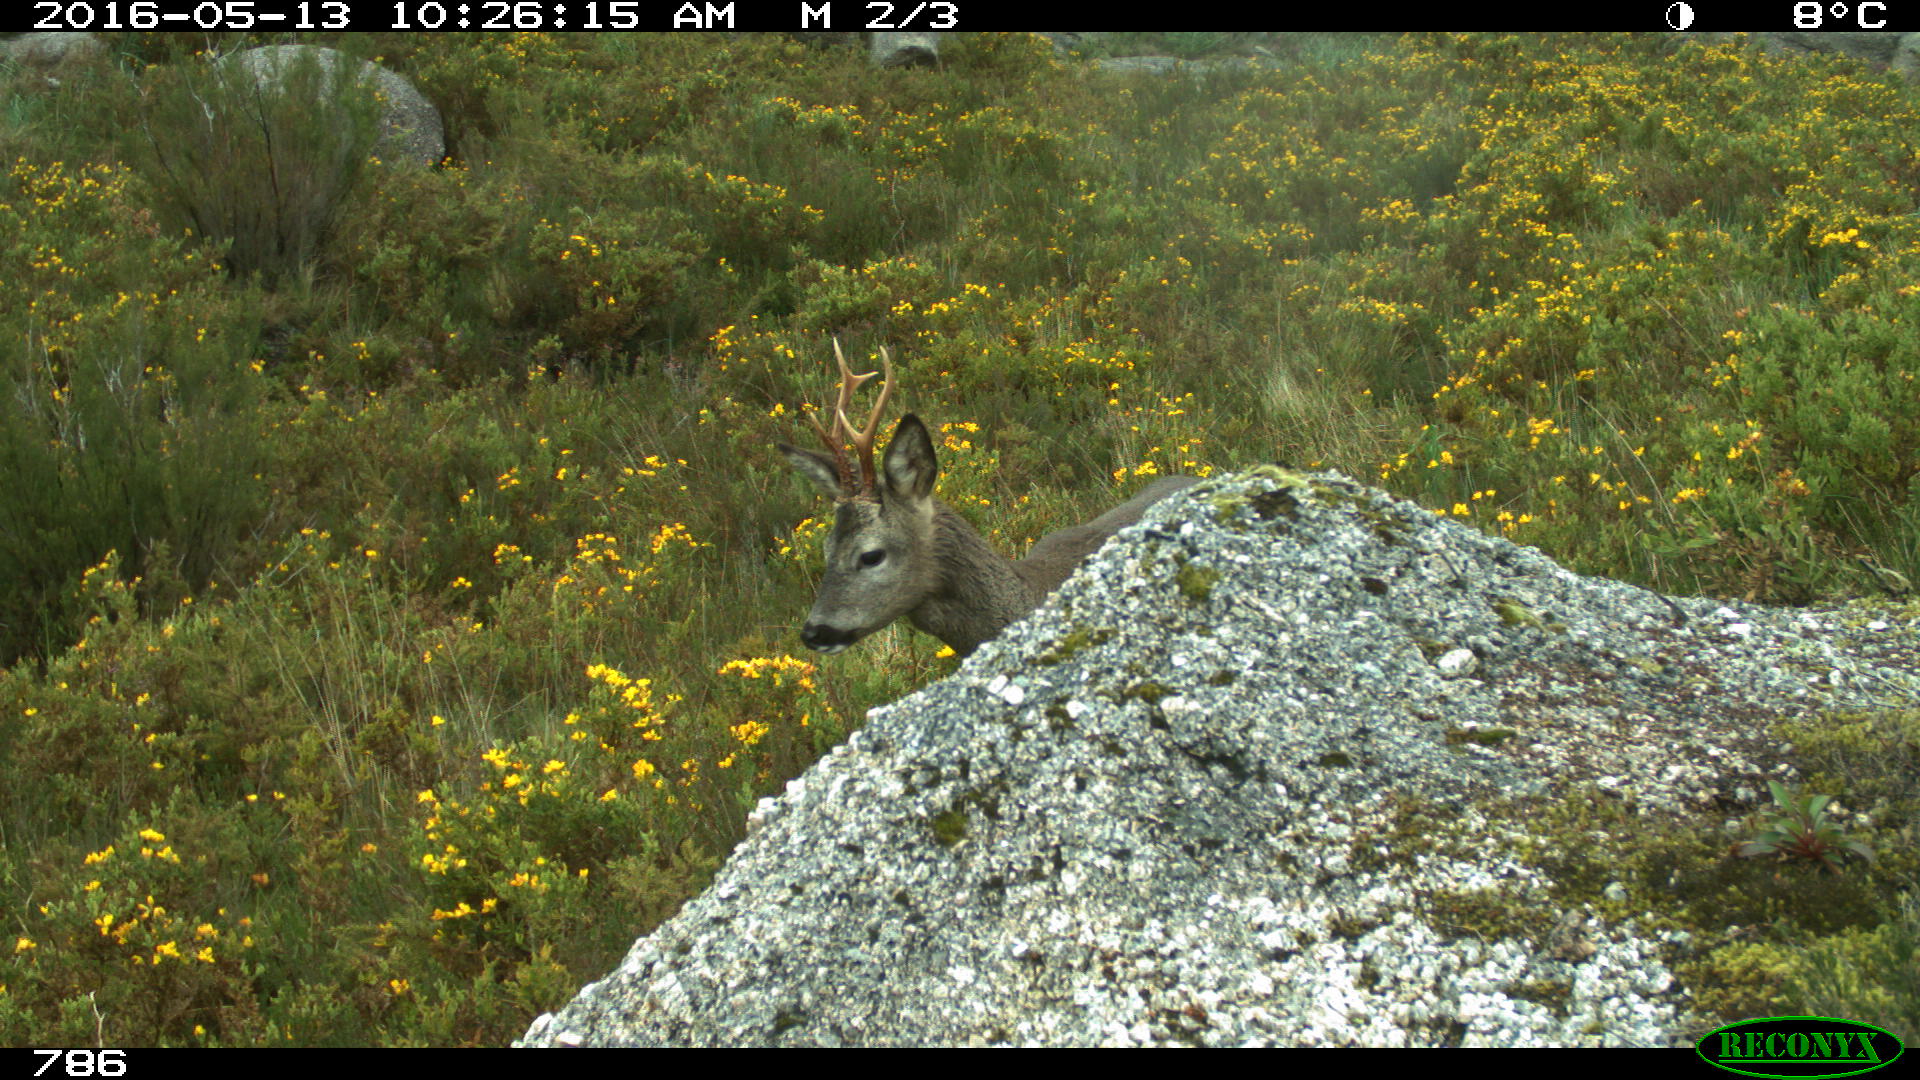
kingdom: Animalia
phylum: Chordata
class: Mammalia
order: Artiodactyla
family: Cervidae
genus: Capreolus
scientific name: Capreolus capreolus
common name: Western roe deer
